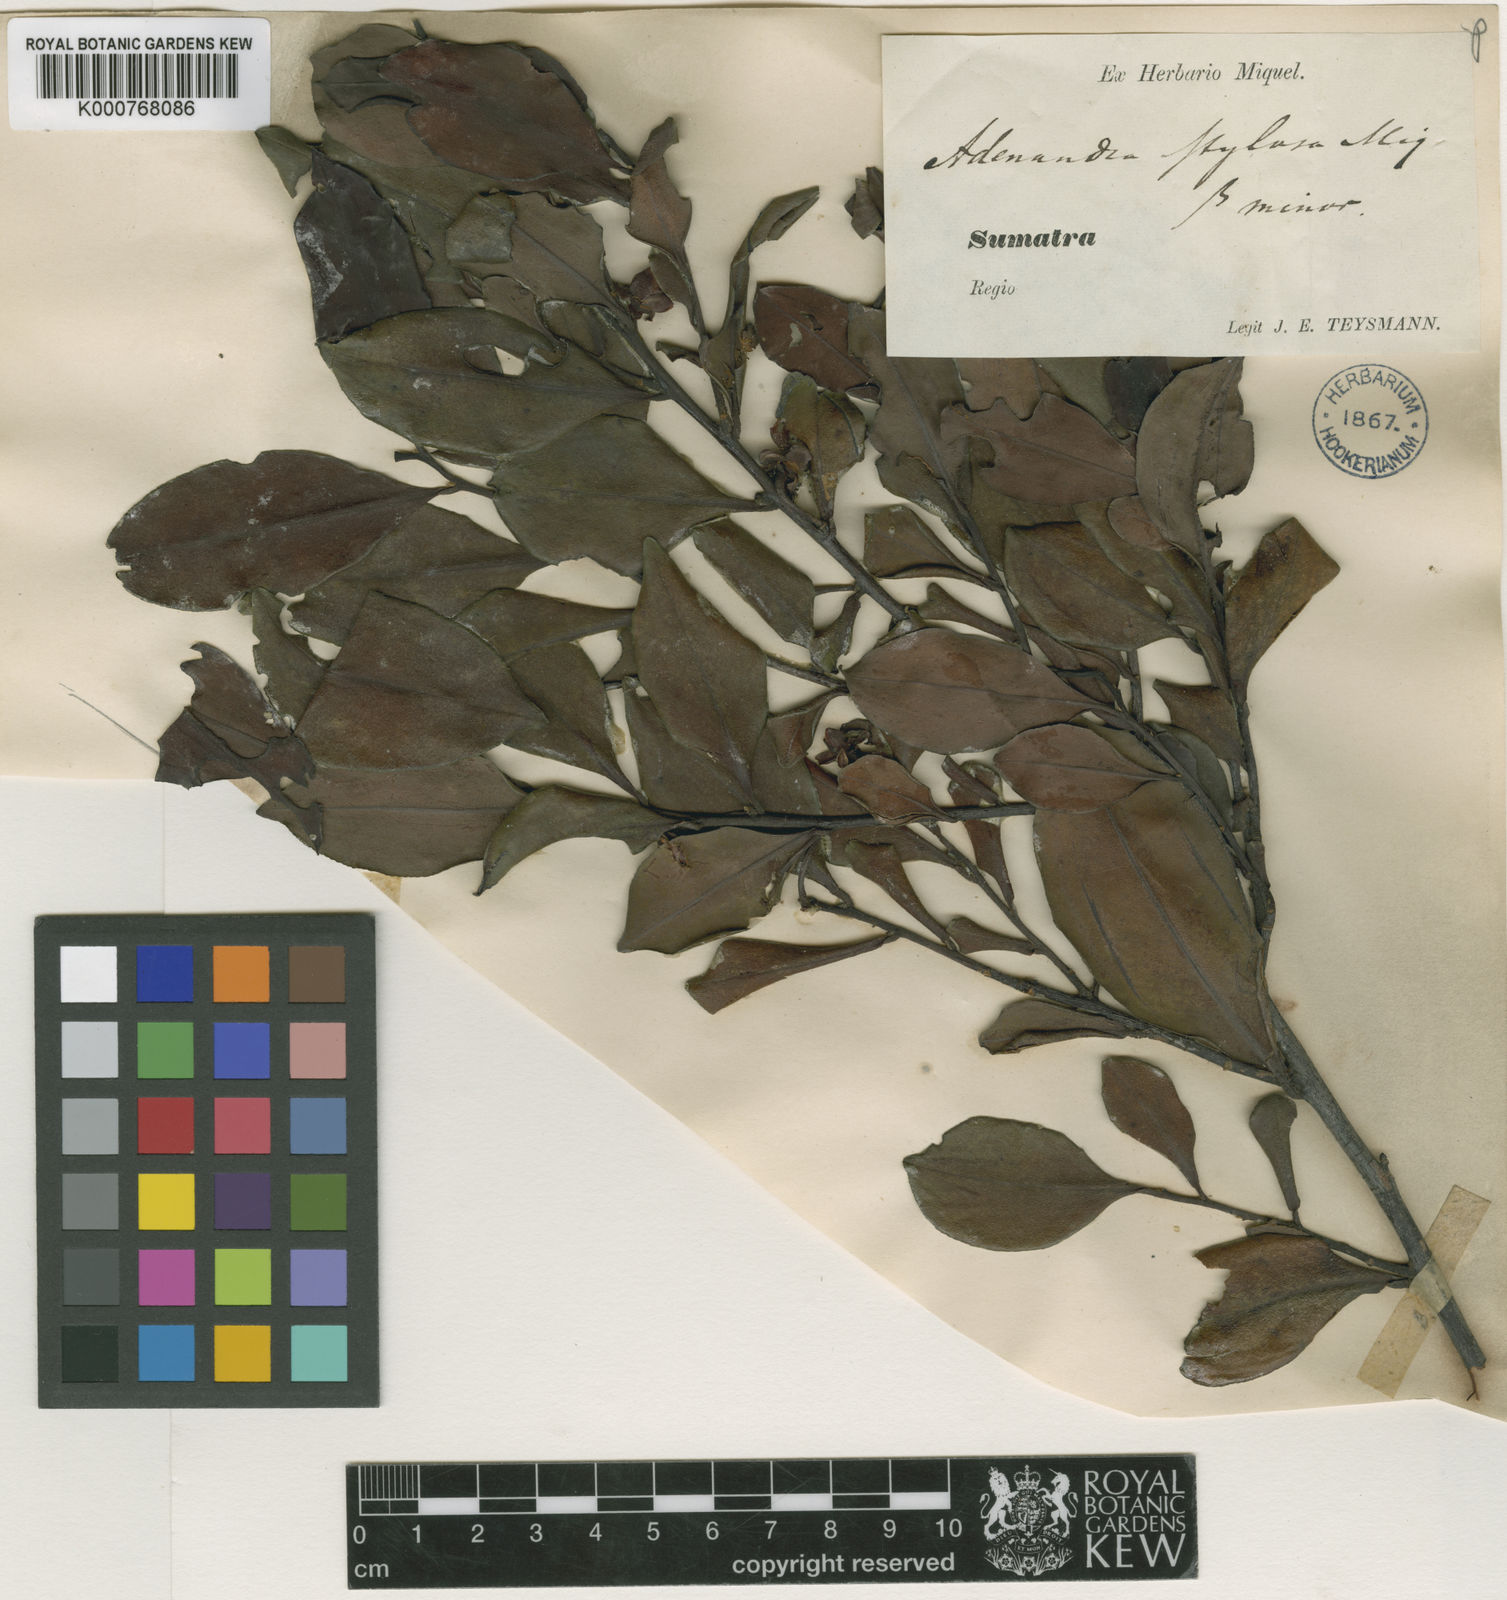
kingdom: Plantae
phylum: Tracheophyta
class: Magnoliopsida
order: Ericales
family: Pentaphylacaceae
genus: Adinandra
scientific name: Adinandra dumosa
